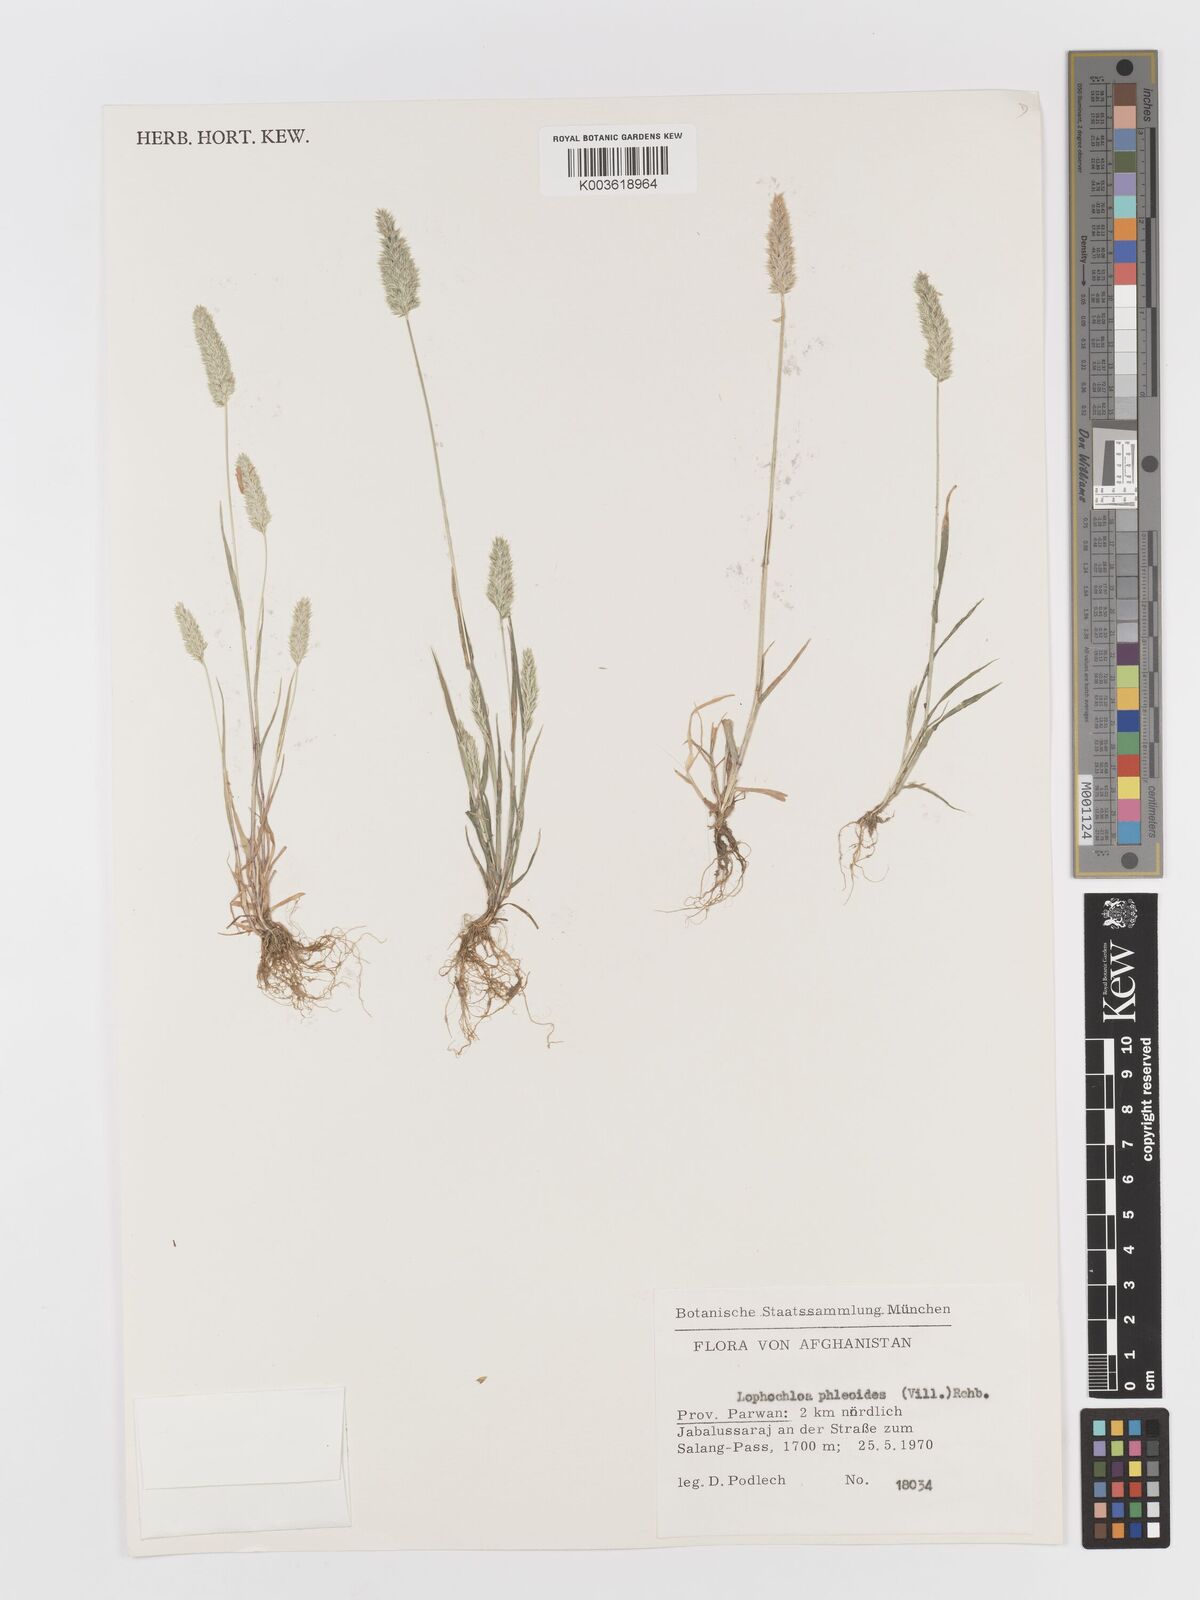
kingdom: Plantae
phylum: Tracheophyta
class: Liliopsida
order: Poales
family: Poaceae
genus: Rostraria
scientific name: Rostraria cristata
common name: Mediterranean hair-grass
